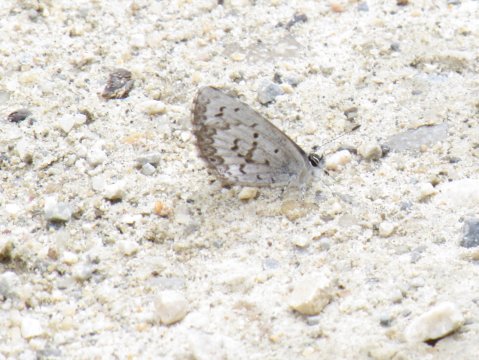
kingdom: Animalia
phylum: Arthropoda
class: Insecta
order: Lepidoptera
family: Lycaenidae
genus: Celastrina
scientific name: Celastrina lucia
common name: Northern Spring Azure
